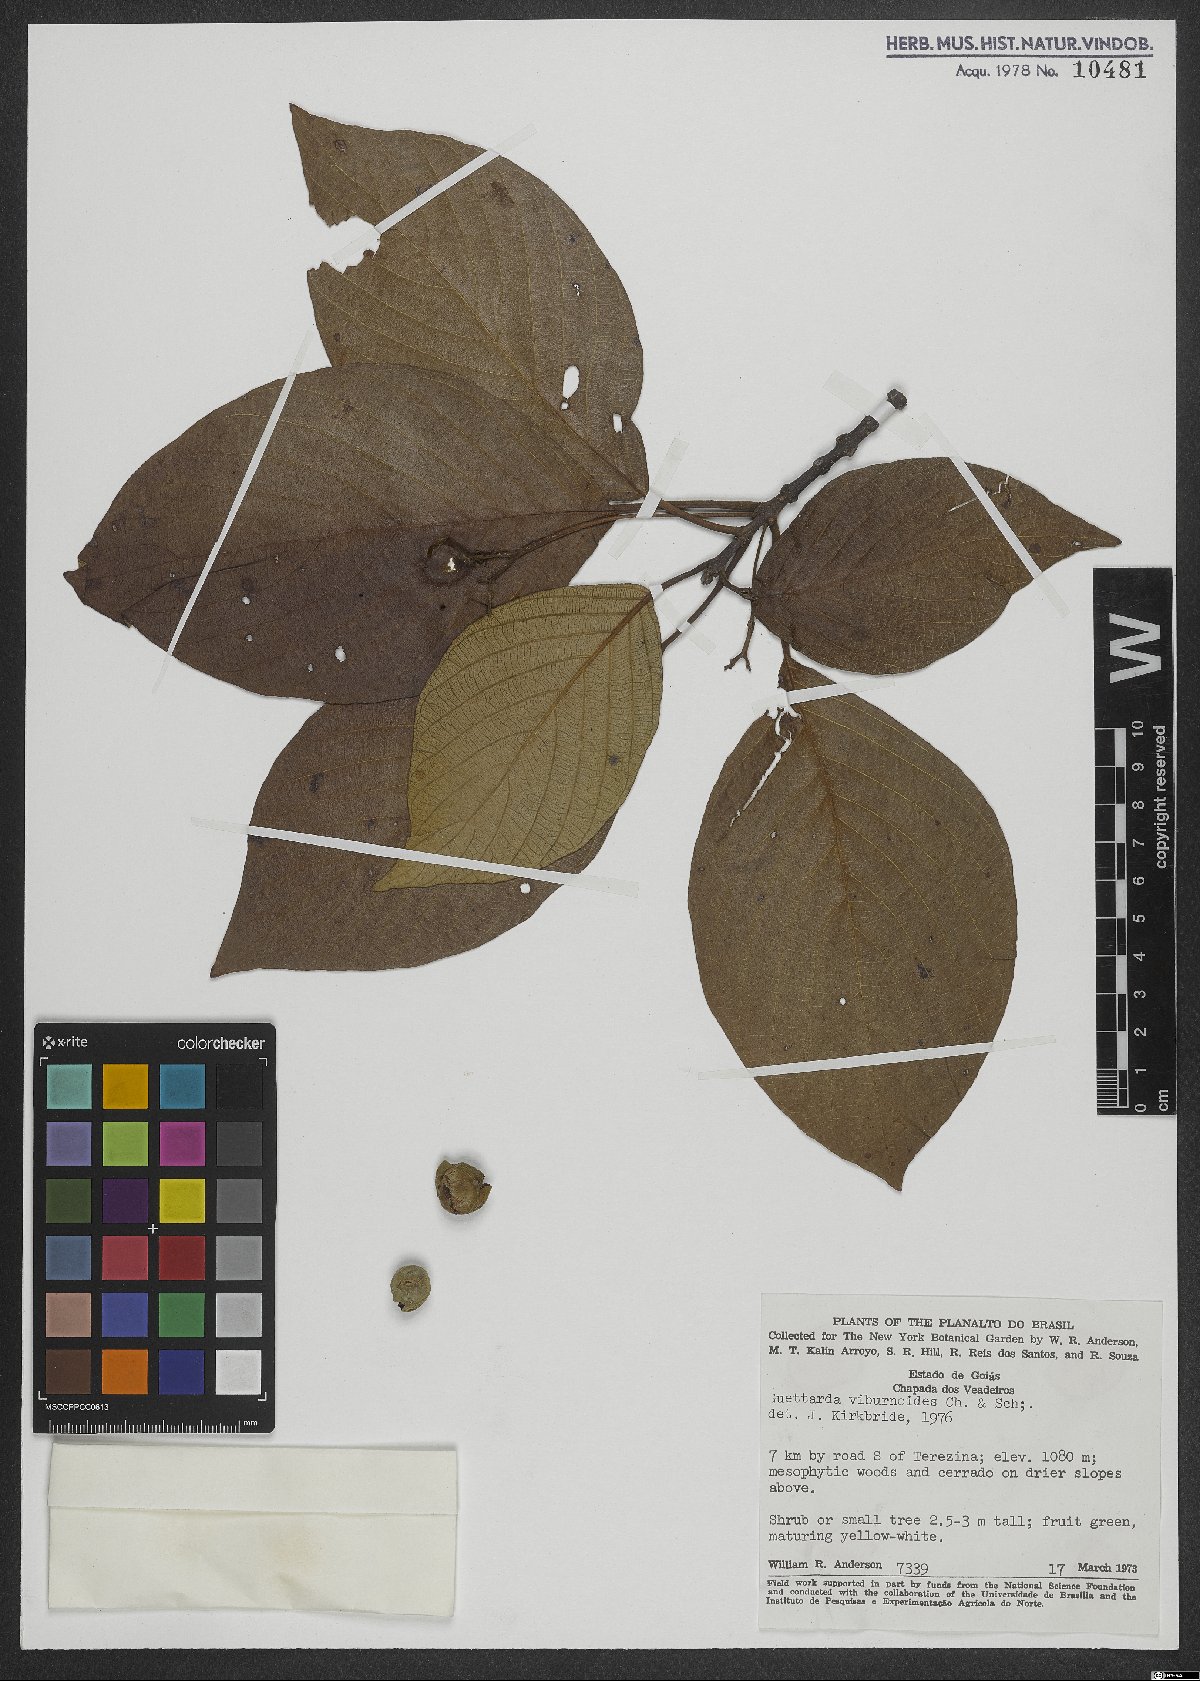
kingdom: Plantae
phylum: Tracheophyta
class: Magnoliopsida
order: Gentianales
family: Rubiaceae
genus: Guettarda
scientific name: Guettarda viburnoides
